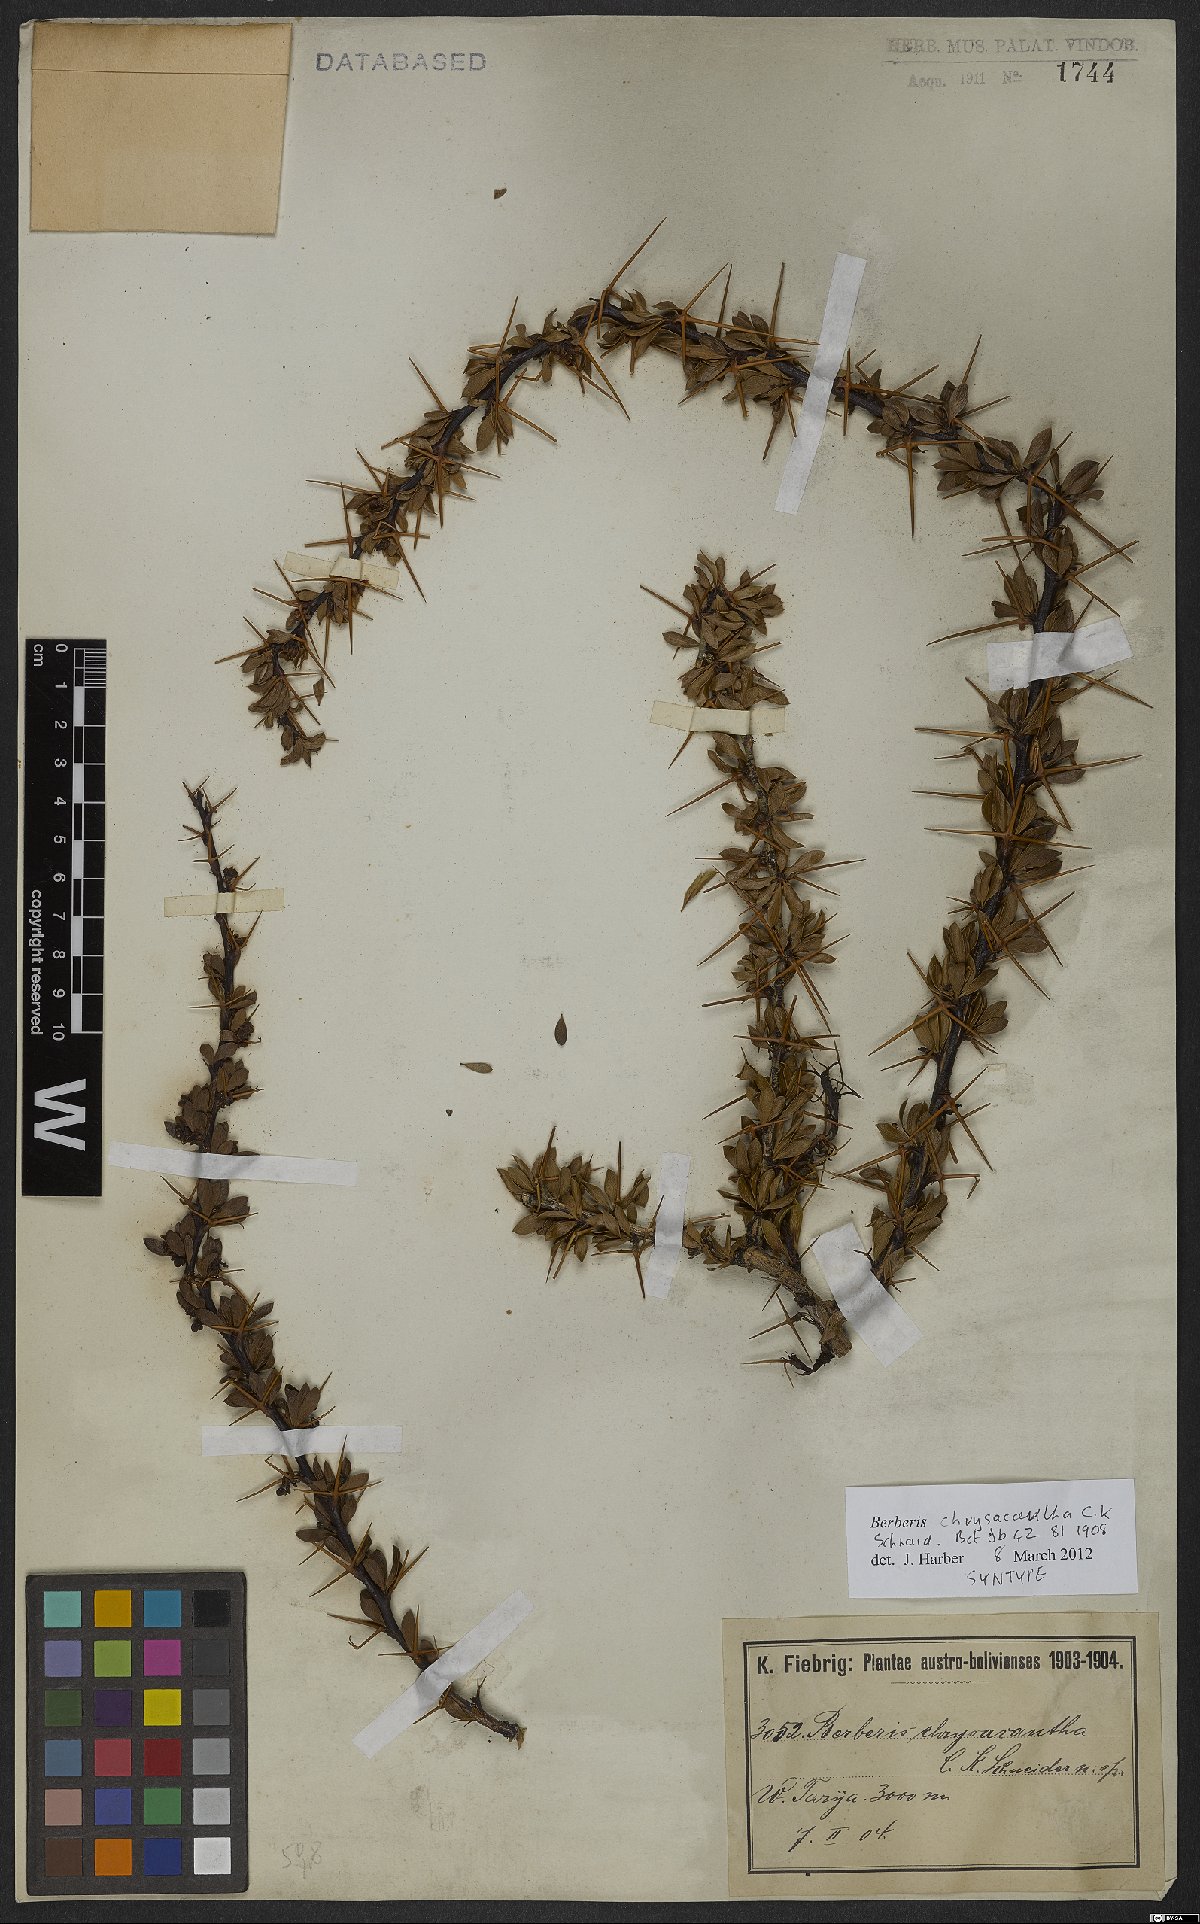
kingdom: Plantae
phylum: Tracheophyta
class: Magnoliopsida
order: Ranunculales
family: Berberidaceae
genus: Berberis
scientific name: Berberis boliviana
